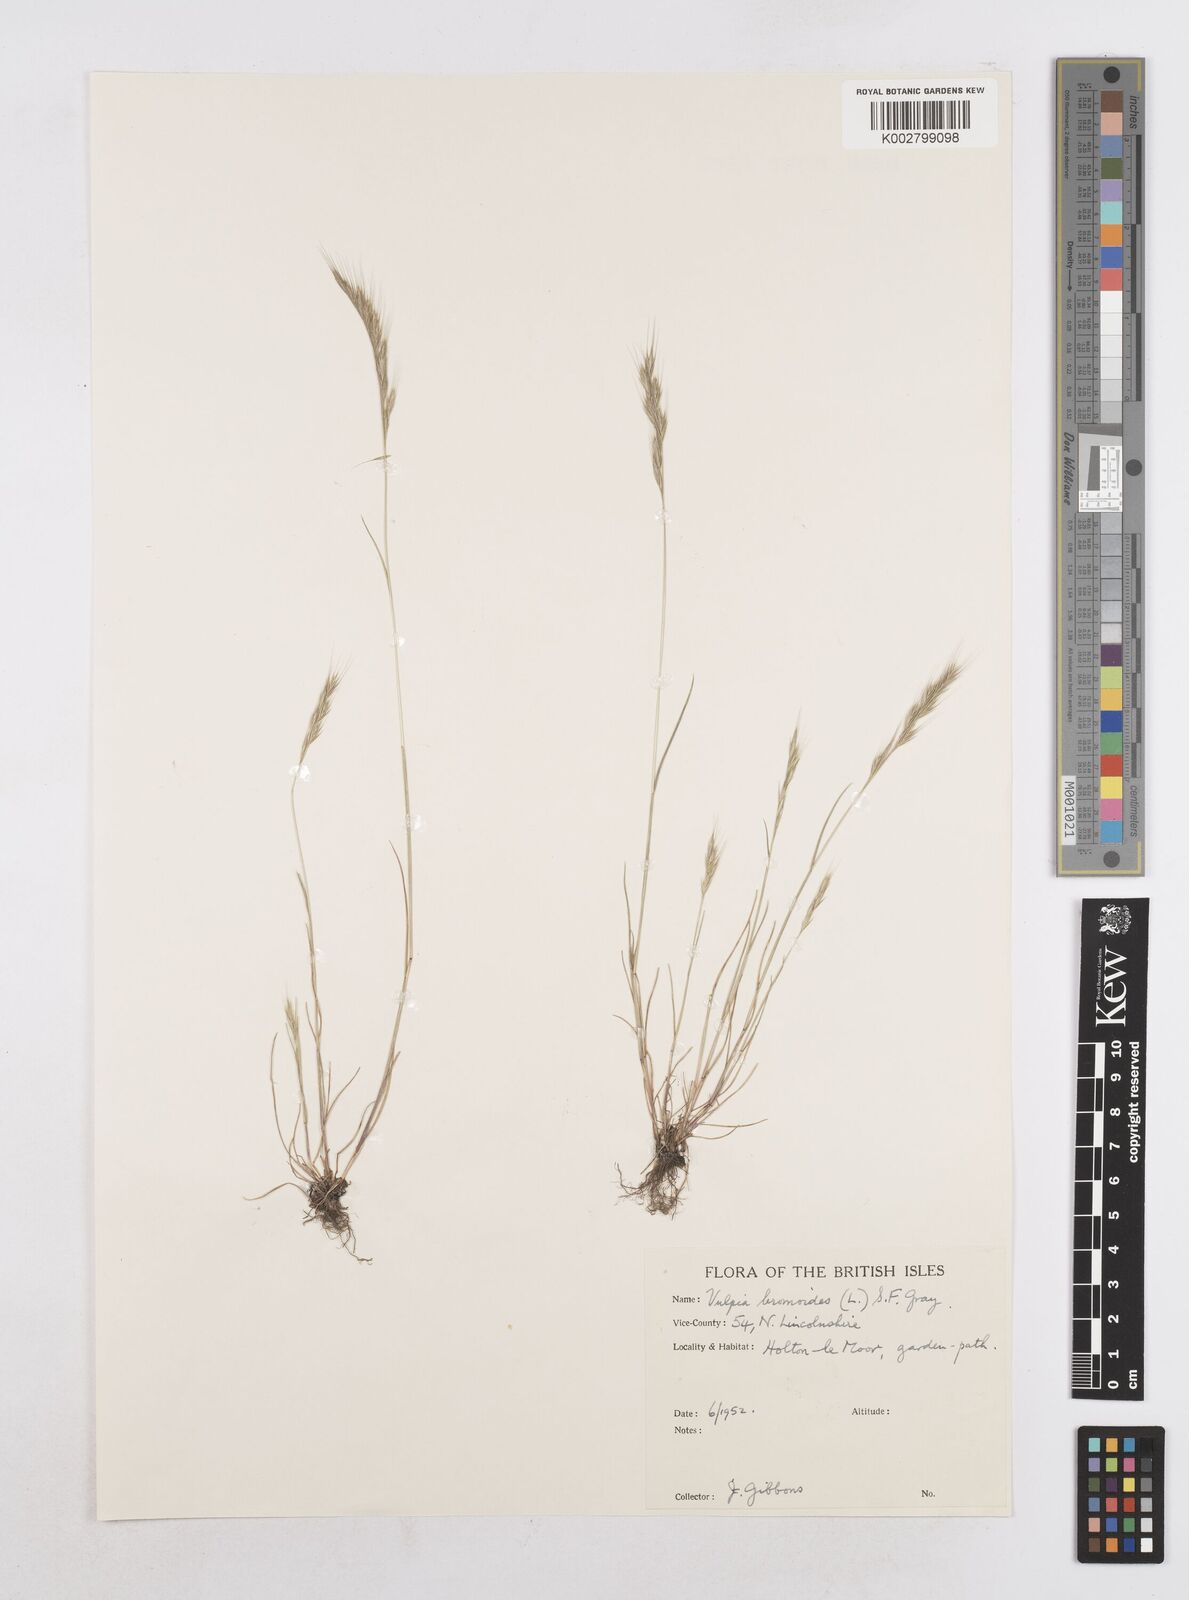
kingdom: Plantae
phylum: Tracheophyta
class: Liliopsida
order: Poales
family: Poaceae
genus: Festuca
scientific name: Festuca bromoides
